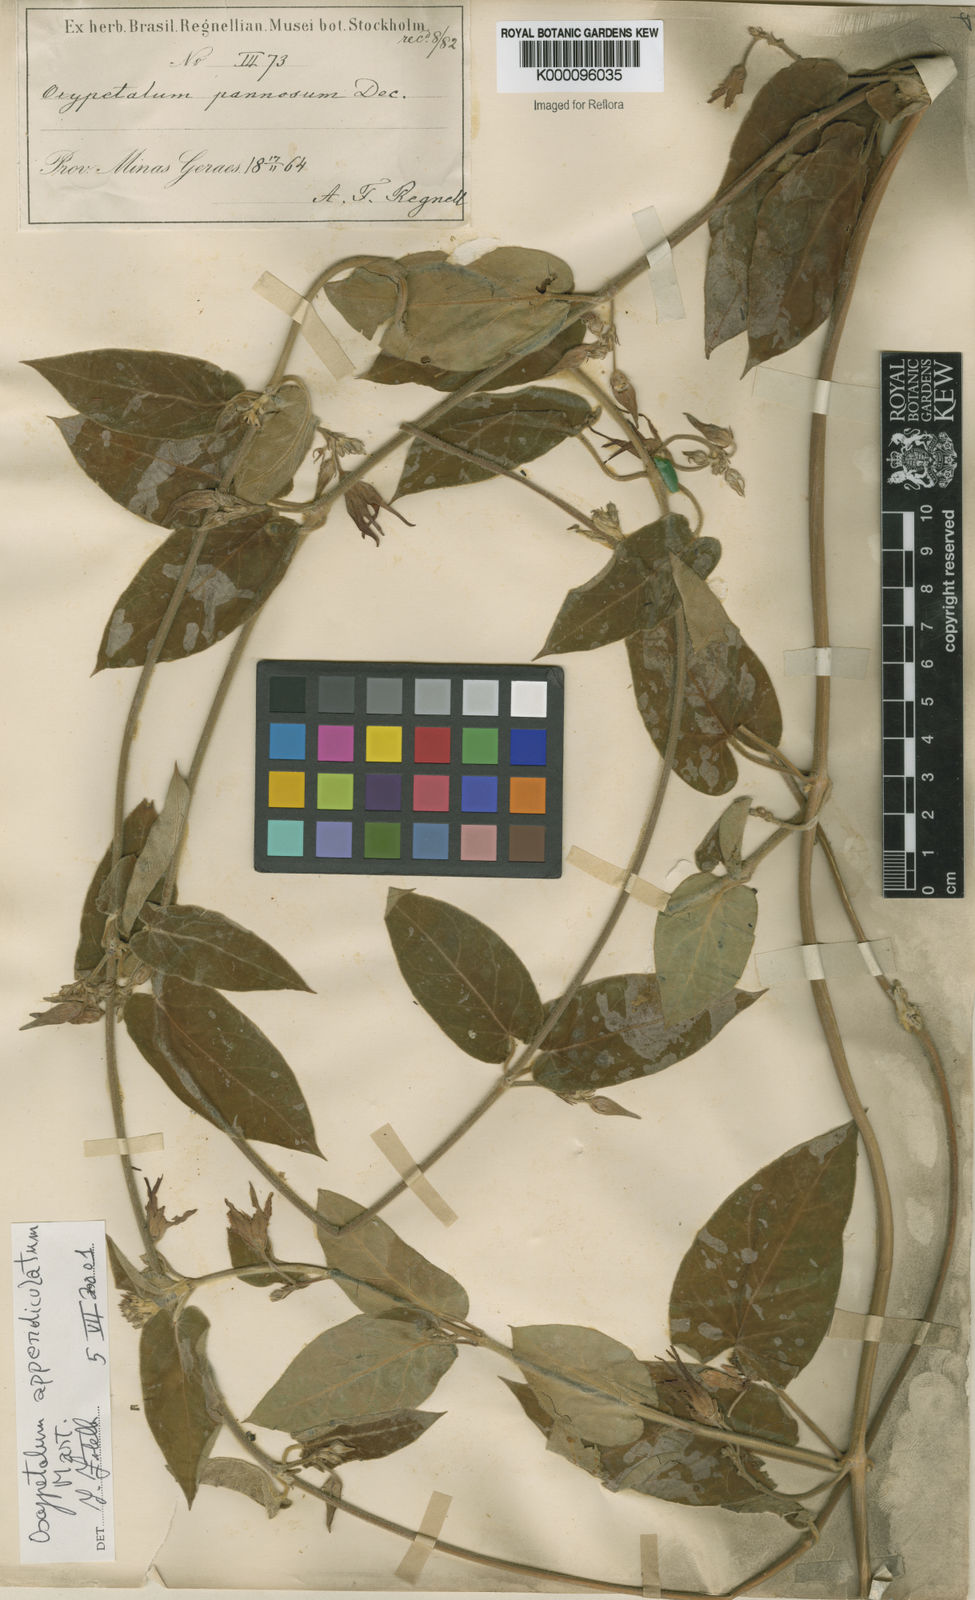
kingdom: Plantae
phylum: Tracheophyta
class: Magnoliopsida
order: Gentianales
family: Apocynaceae
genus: Oxypetalum
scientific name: Oxypetalum appendiculatum
